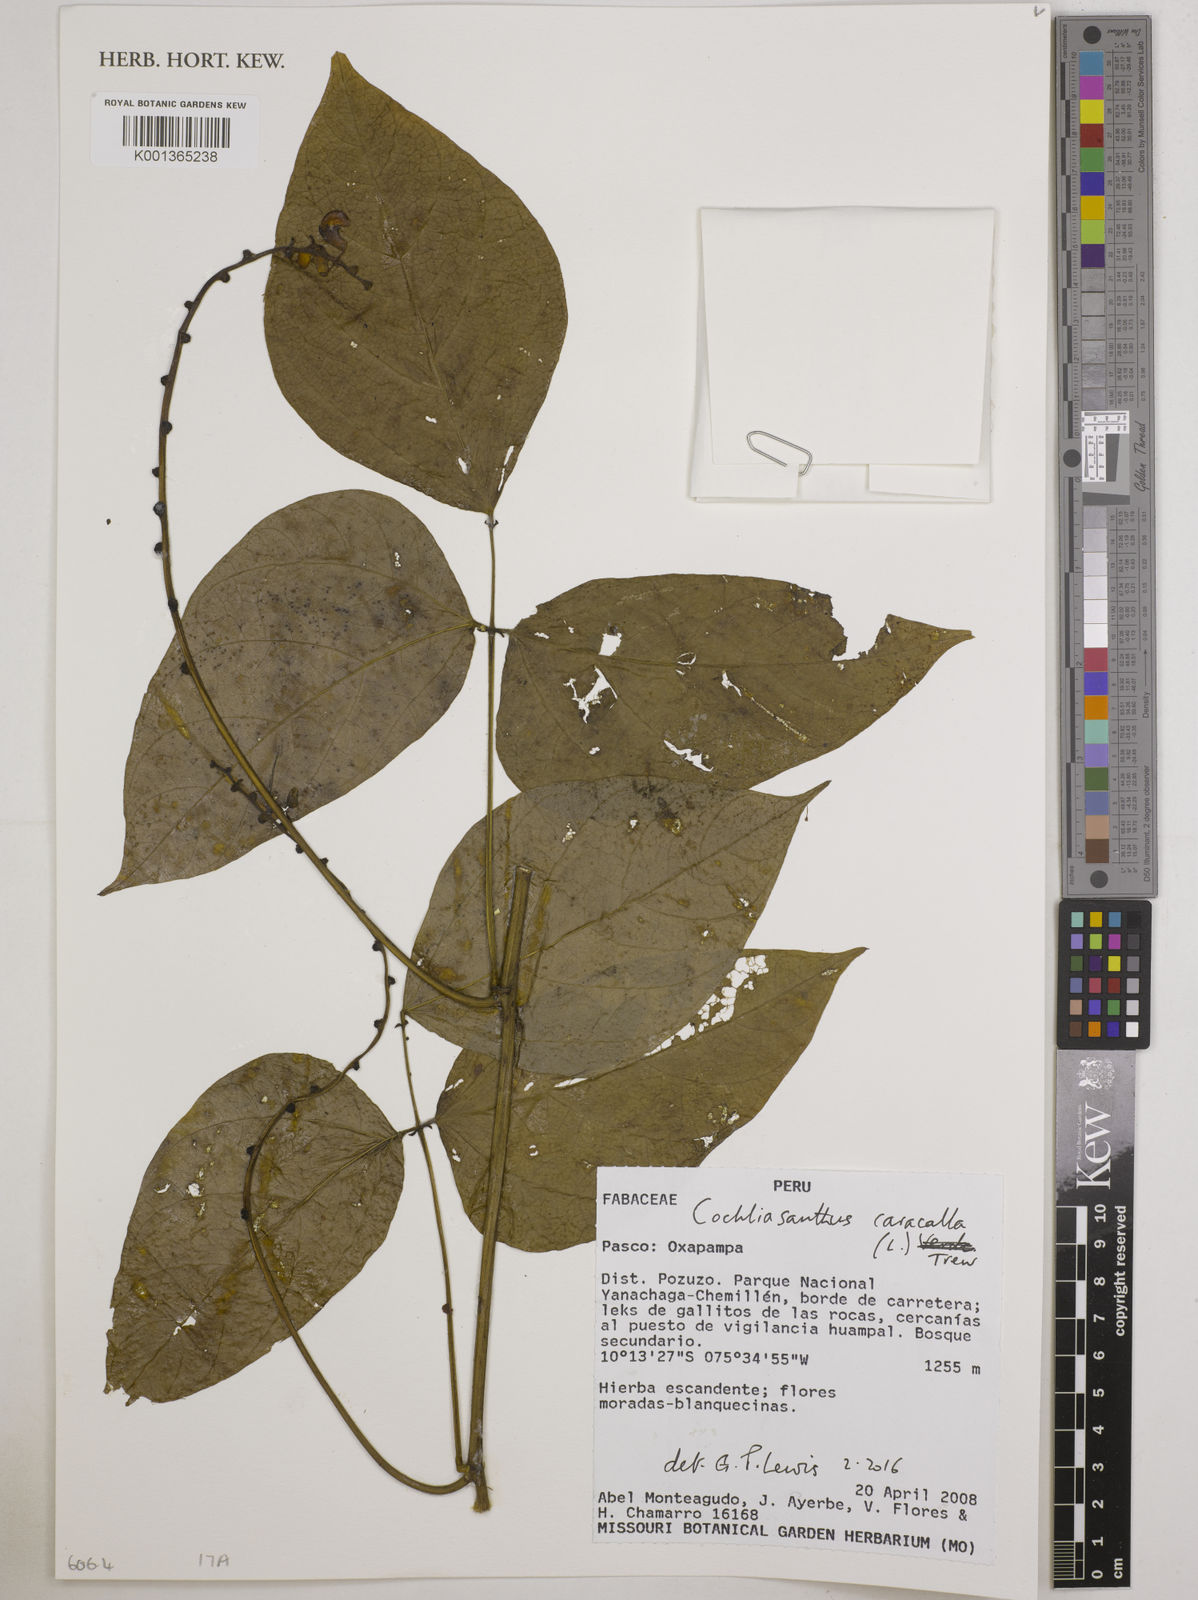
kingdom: Plantae
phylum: Tracheophyta
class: Magnoliopsida
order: Fabales
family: Fabaceae
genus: Cochliasanthus
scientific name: Cochliasanthus caracalla
